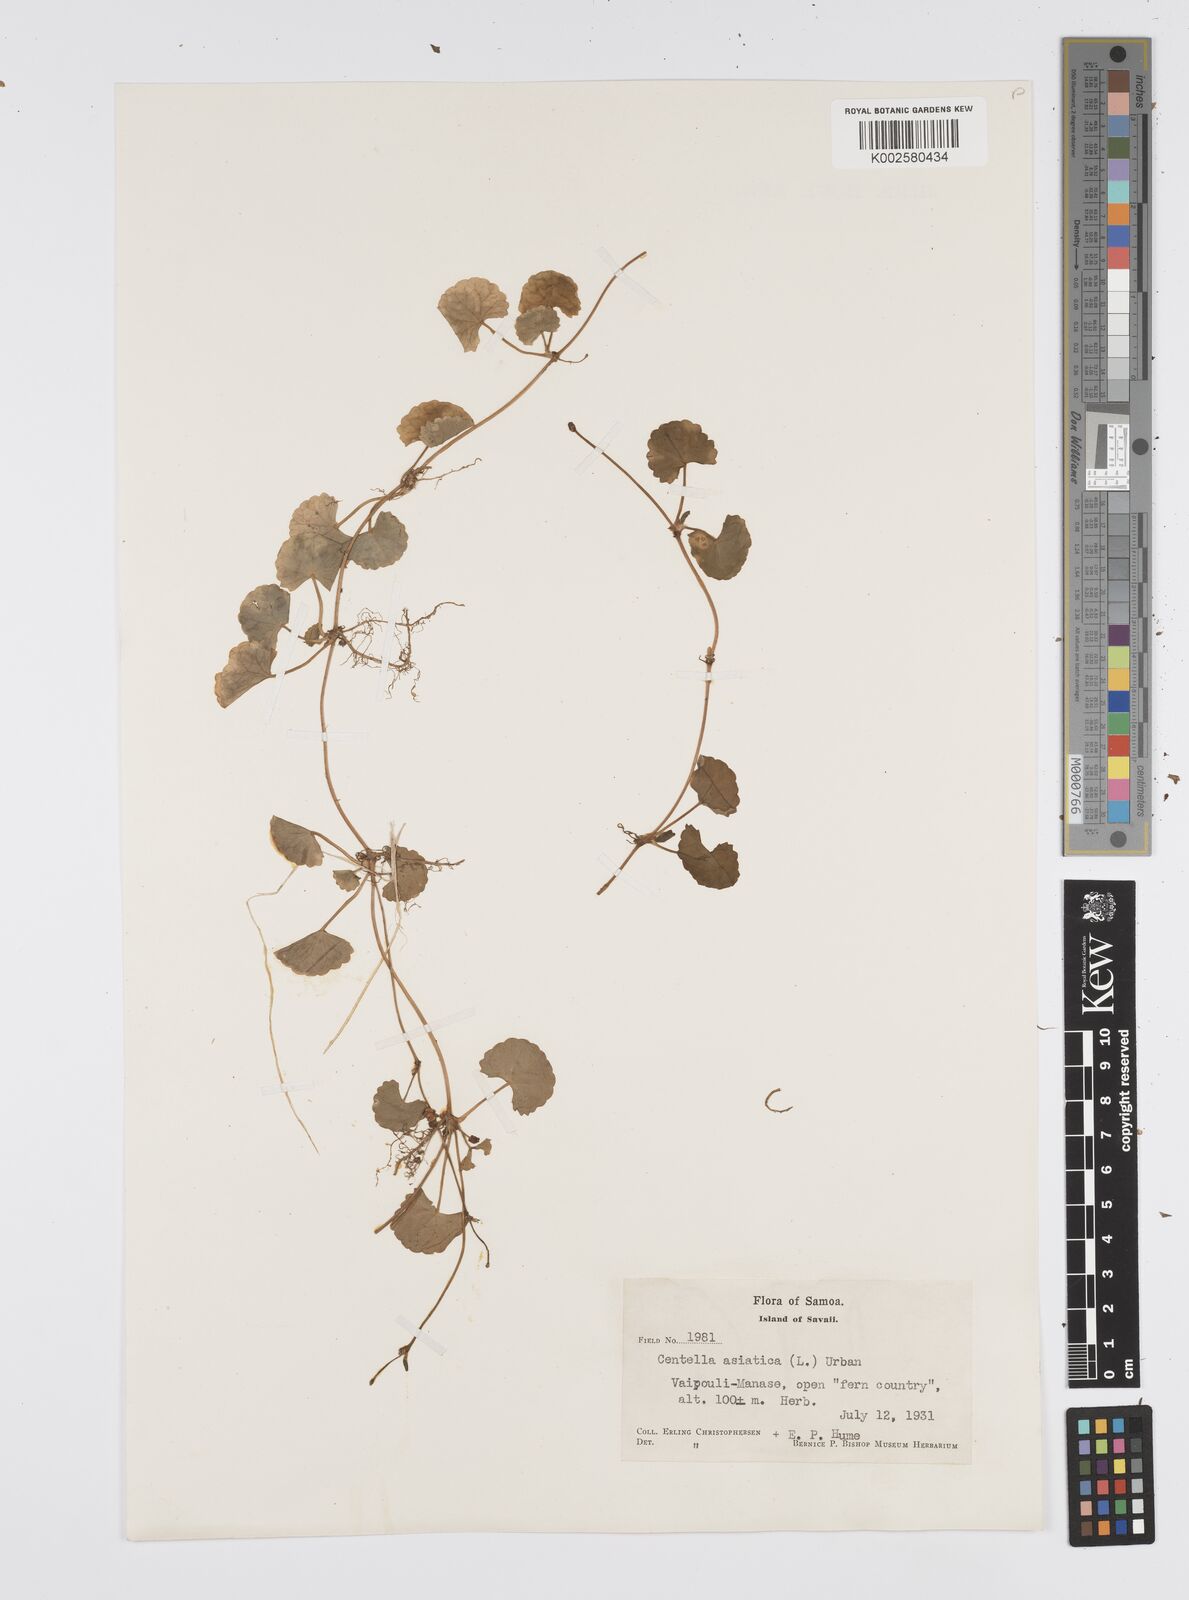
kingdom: Plantae
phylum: Tracheophyta
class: Magnoliopsida
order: Apiales
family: Apiaceae
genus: Centella
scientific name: Centella asiatica
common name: Spadeleaf
